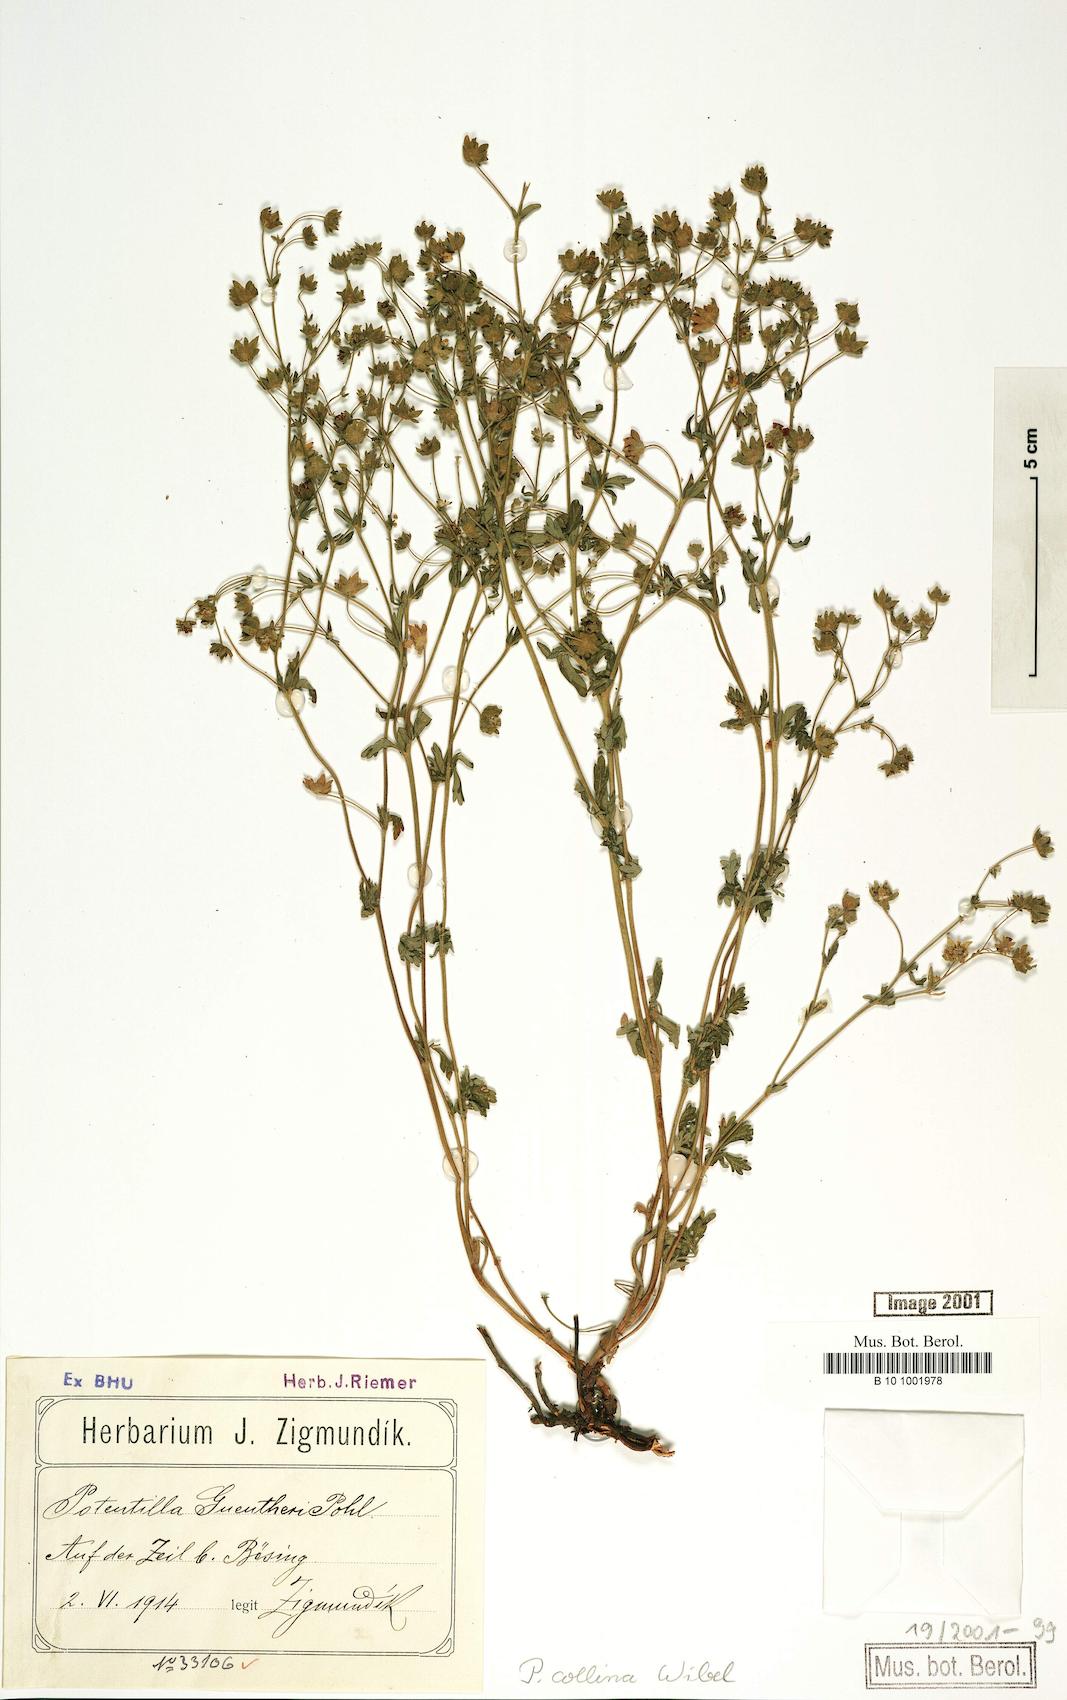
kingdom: Plantae
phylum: Tracheophyta
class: Magnoliopsida
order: Rosales
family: Rosaceae
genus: Potentilla
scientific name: Potentilla collina
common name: Palmleaf cinquefoil
